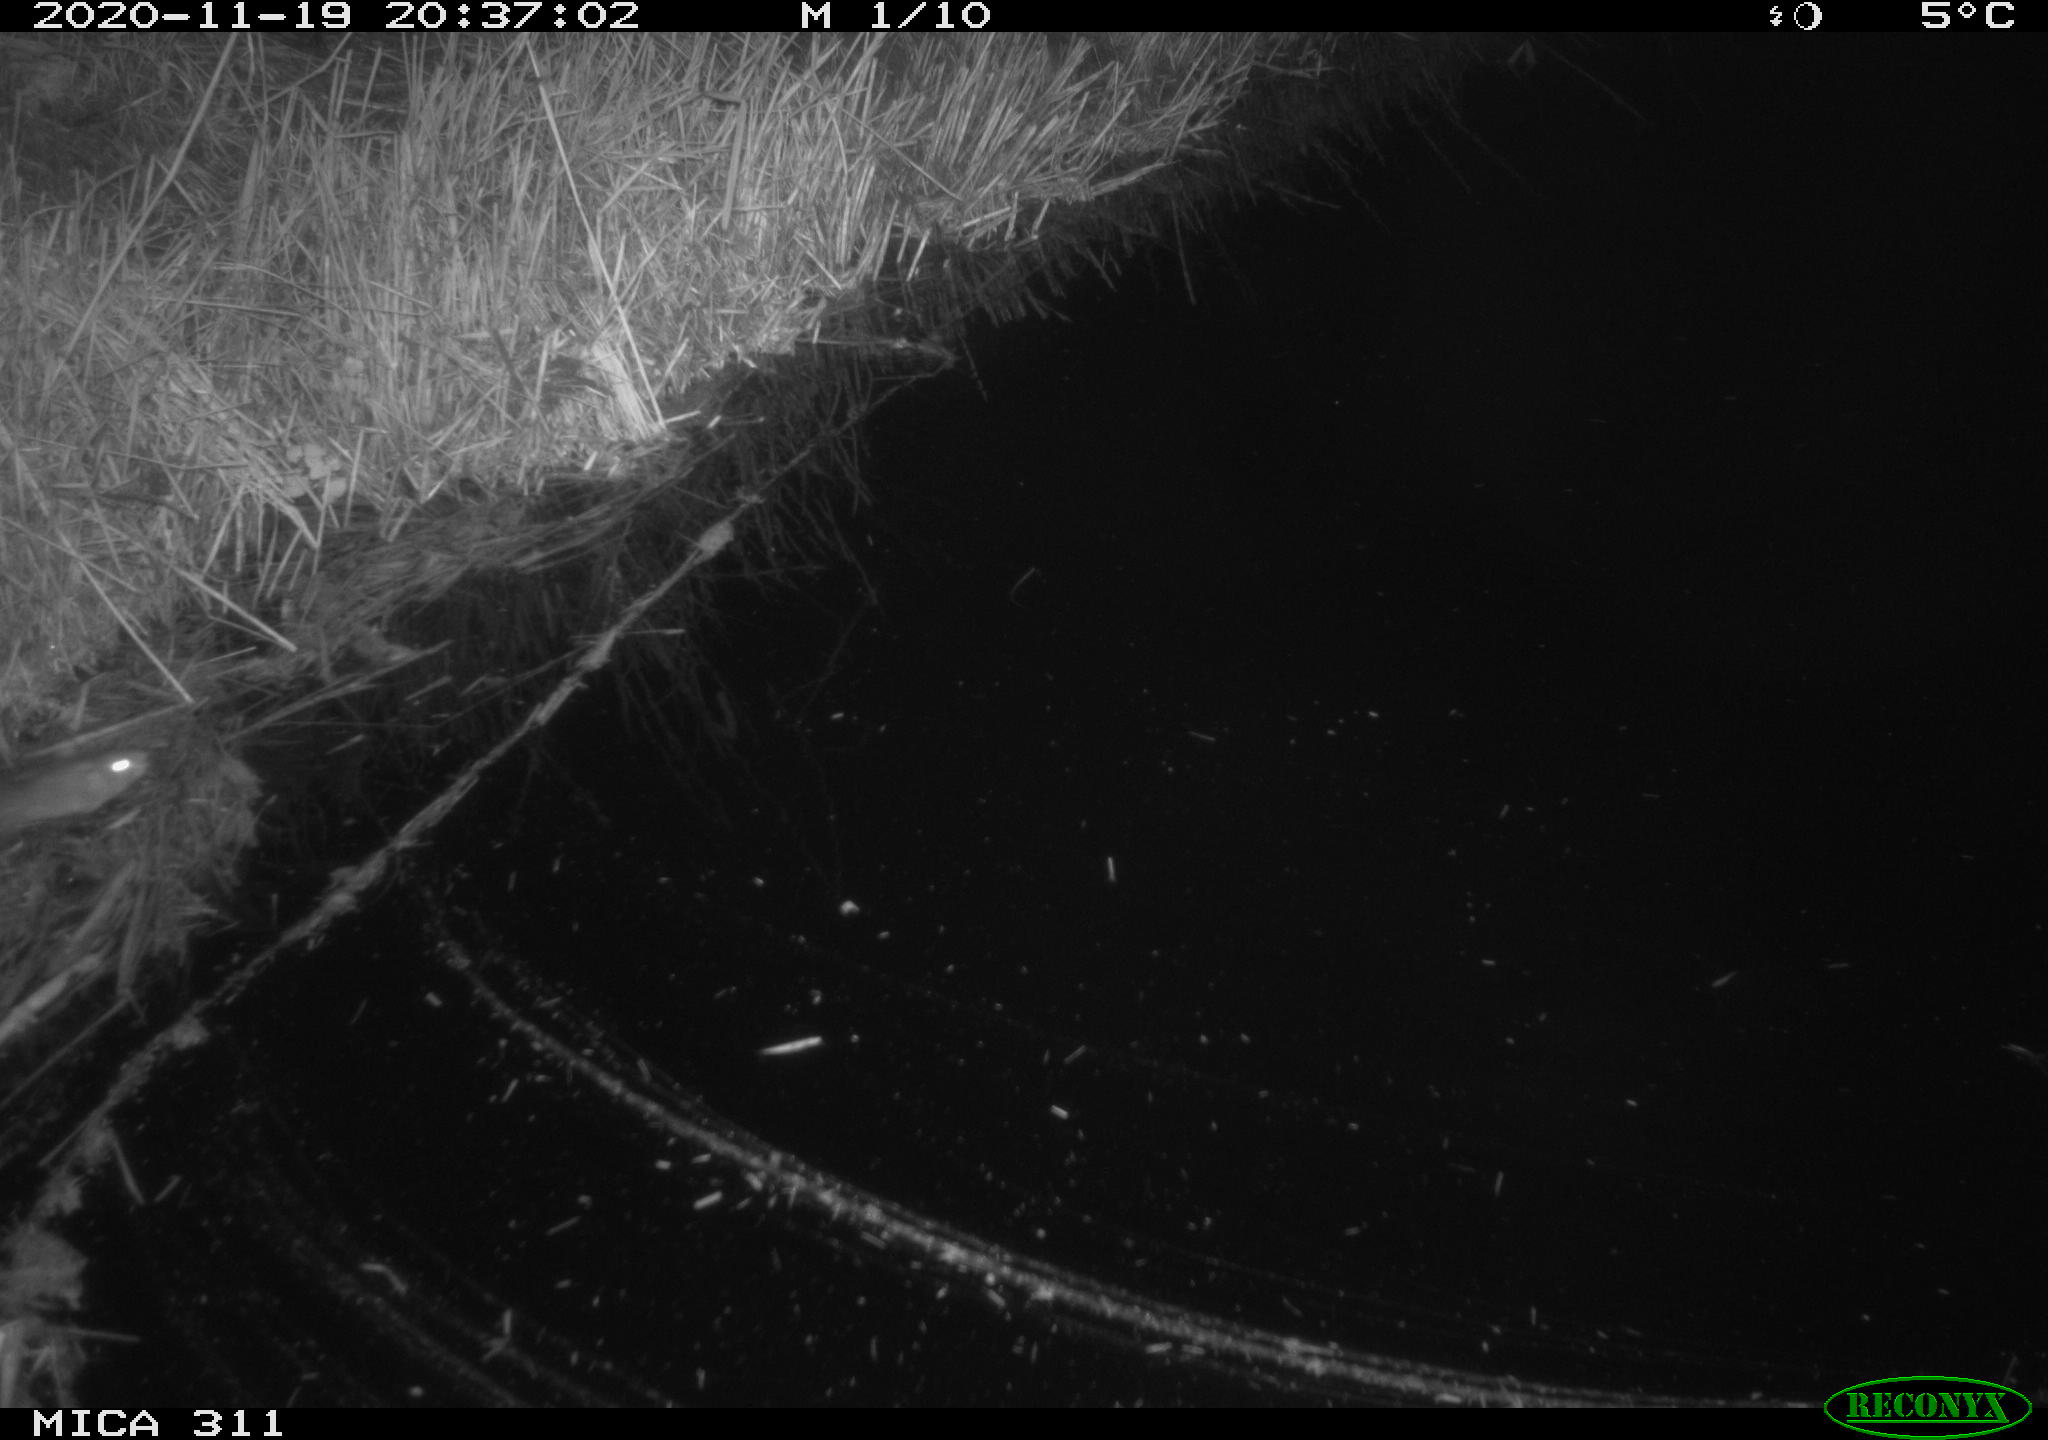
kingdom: Animalia
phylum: Chordata
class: Mammalia
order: Rodentia
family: Muridae
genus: Rattus
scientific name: Rattus norvegicus
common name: Brown rat
